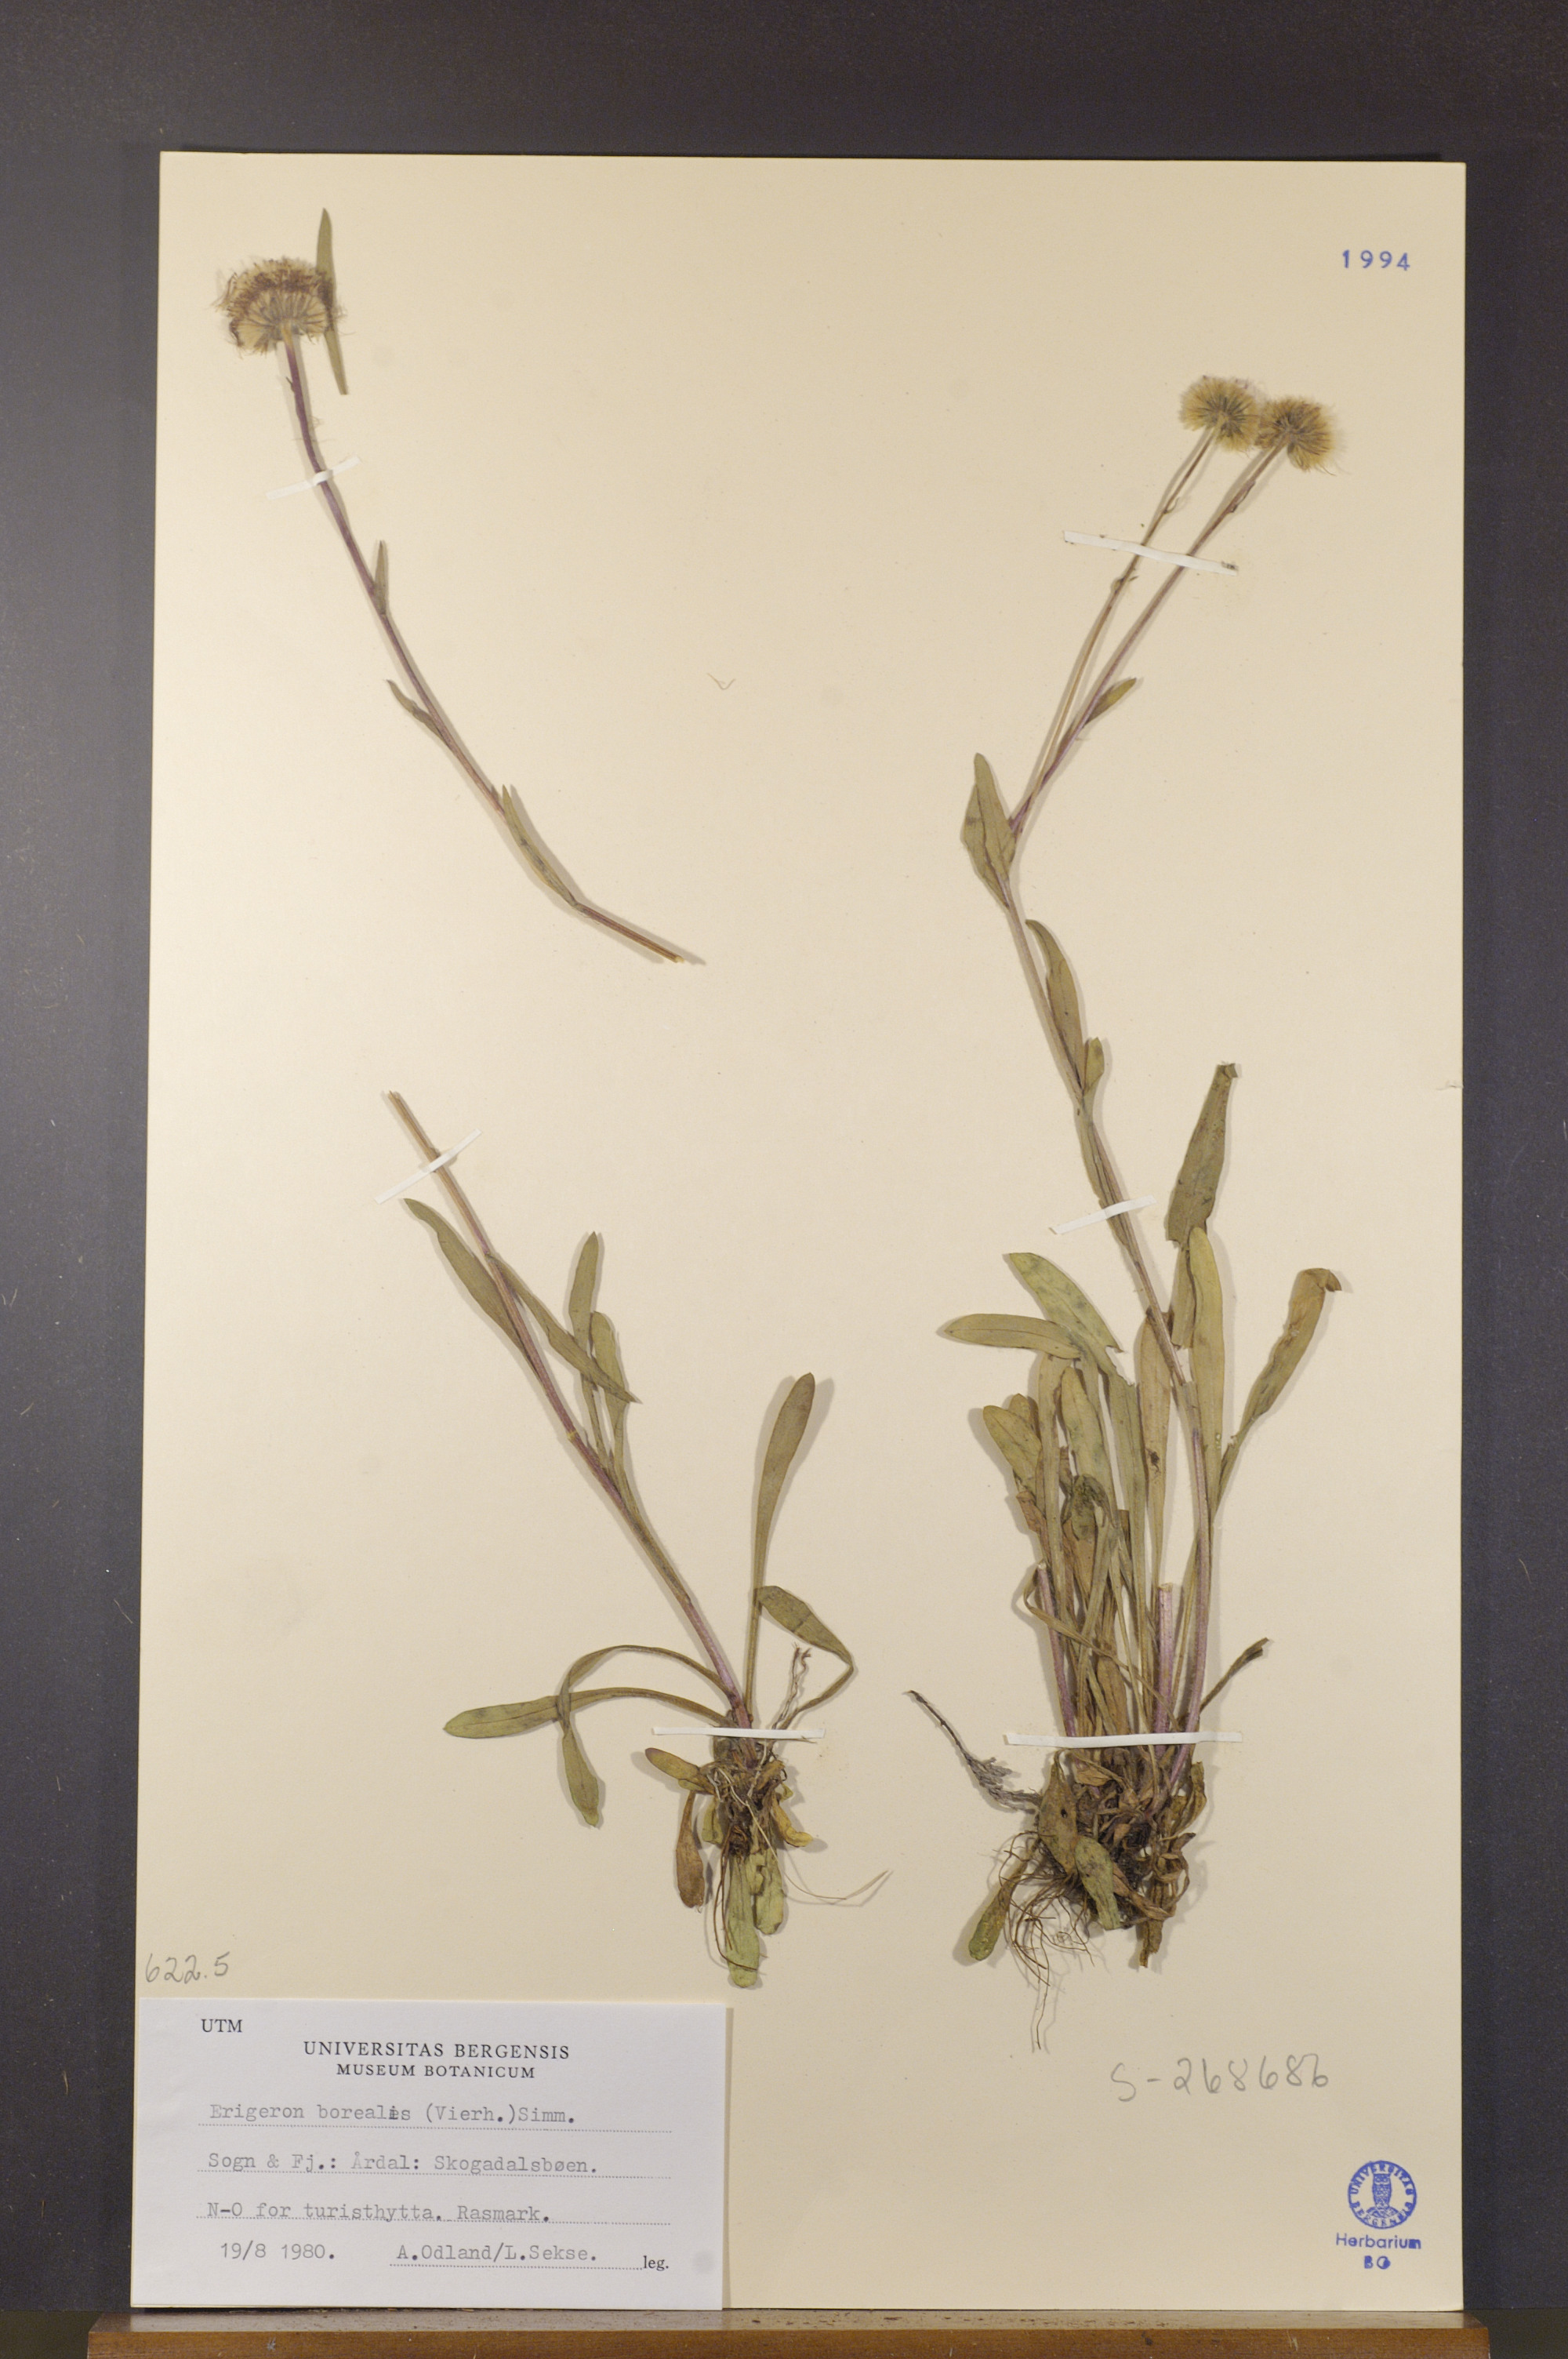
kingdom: Plantae
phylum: Tracheophyta
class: Magnoliopsida
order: Asterales
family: Asteraceae
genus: Erigeron
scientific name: Erigeron borealis
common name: Alpine fleabane
